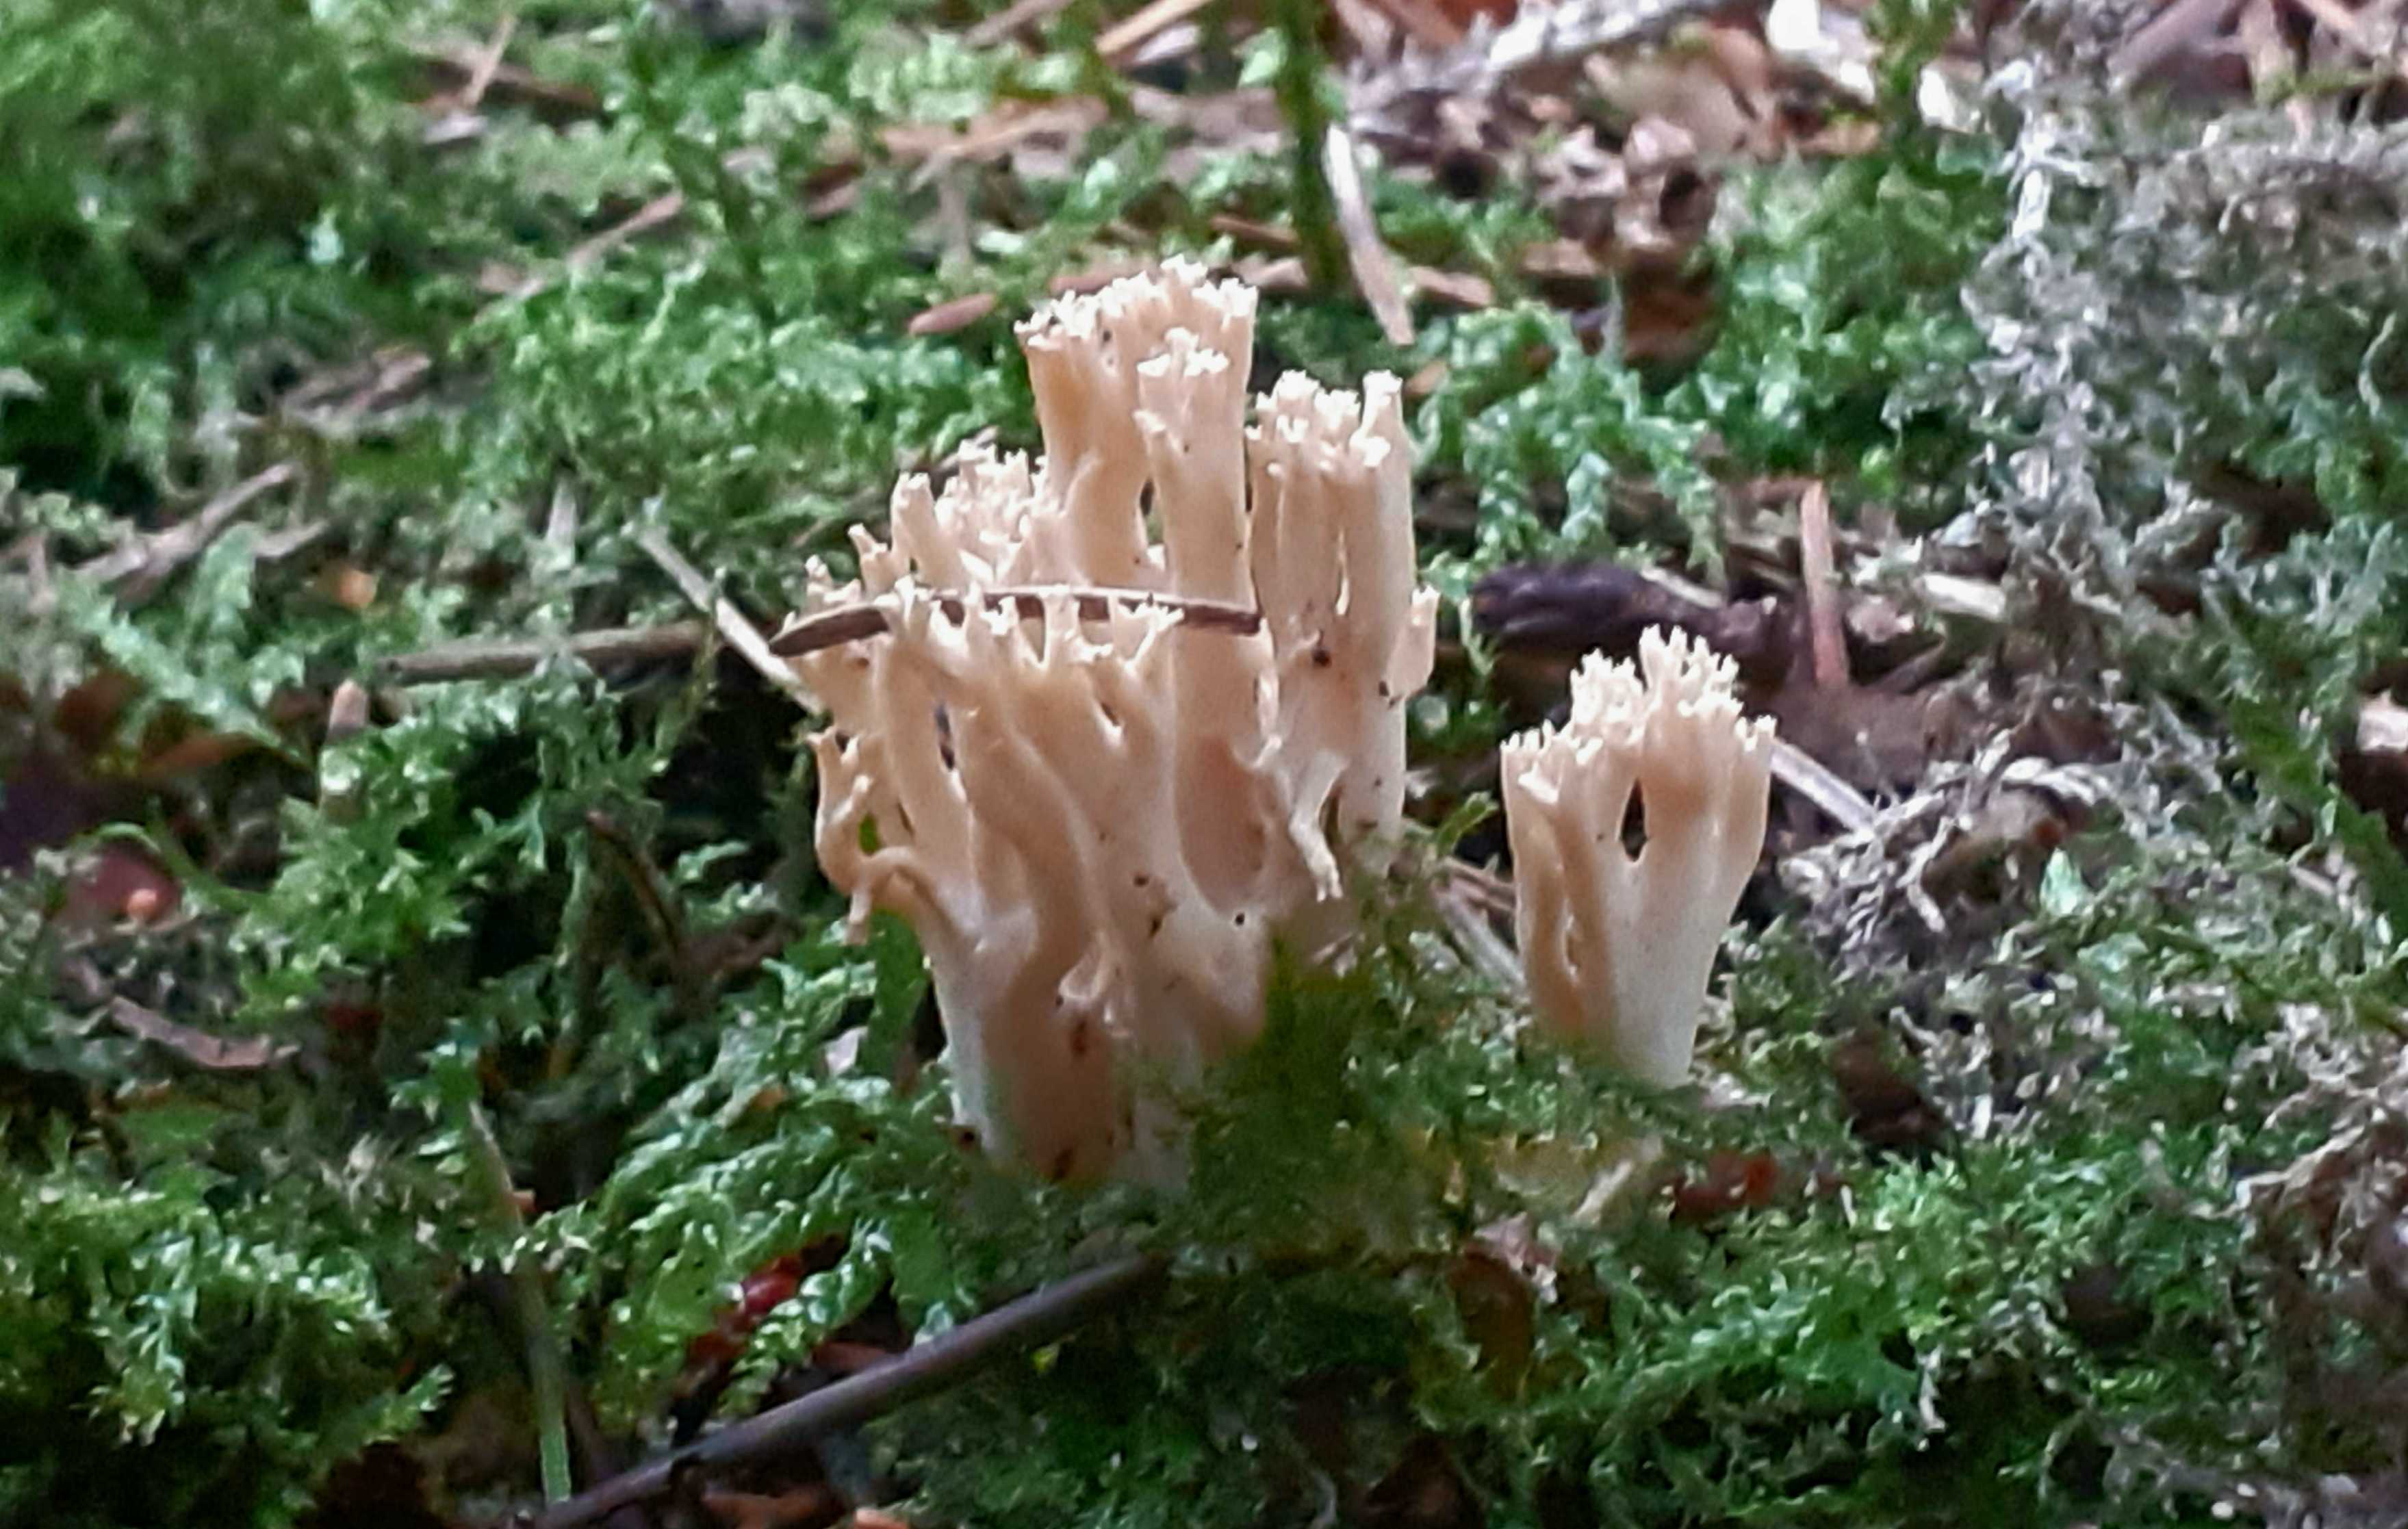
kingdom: Fungi
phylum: Basidiomycota
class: Agaricomycetes
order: Gomphales
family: Gomphaceae
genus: Phaeoclavulina
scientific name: Phaeoclavulina eumorpha
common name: gran-koralsvamp
